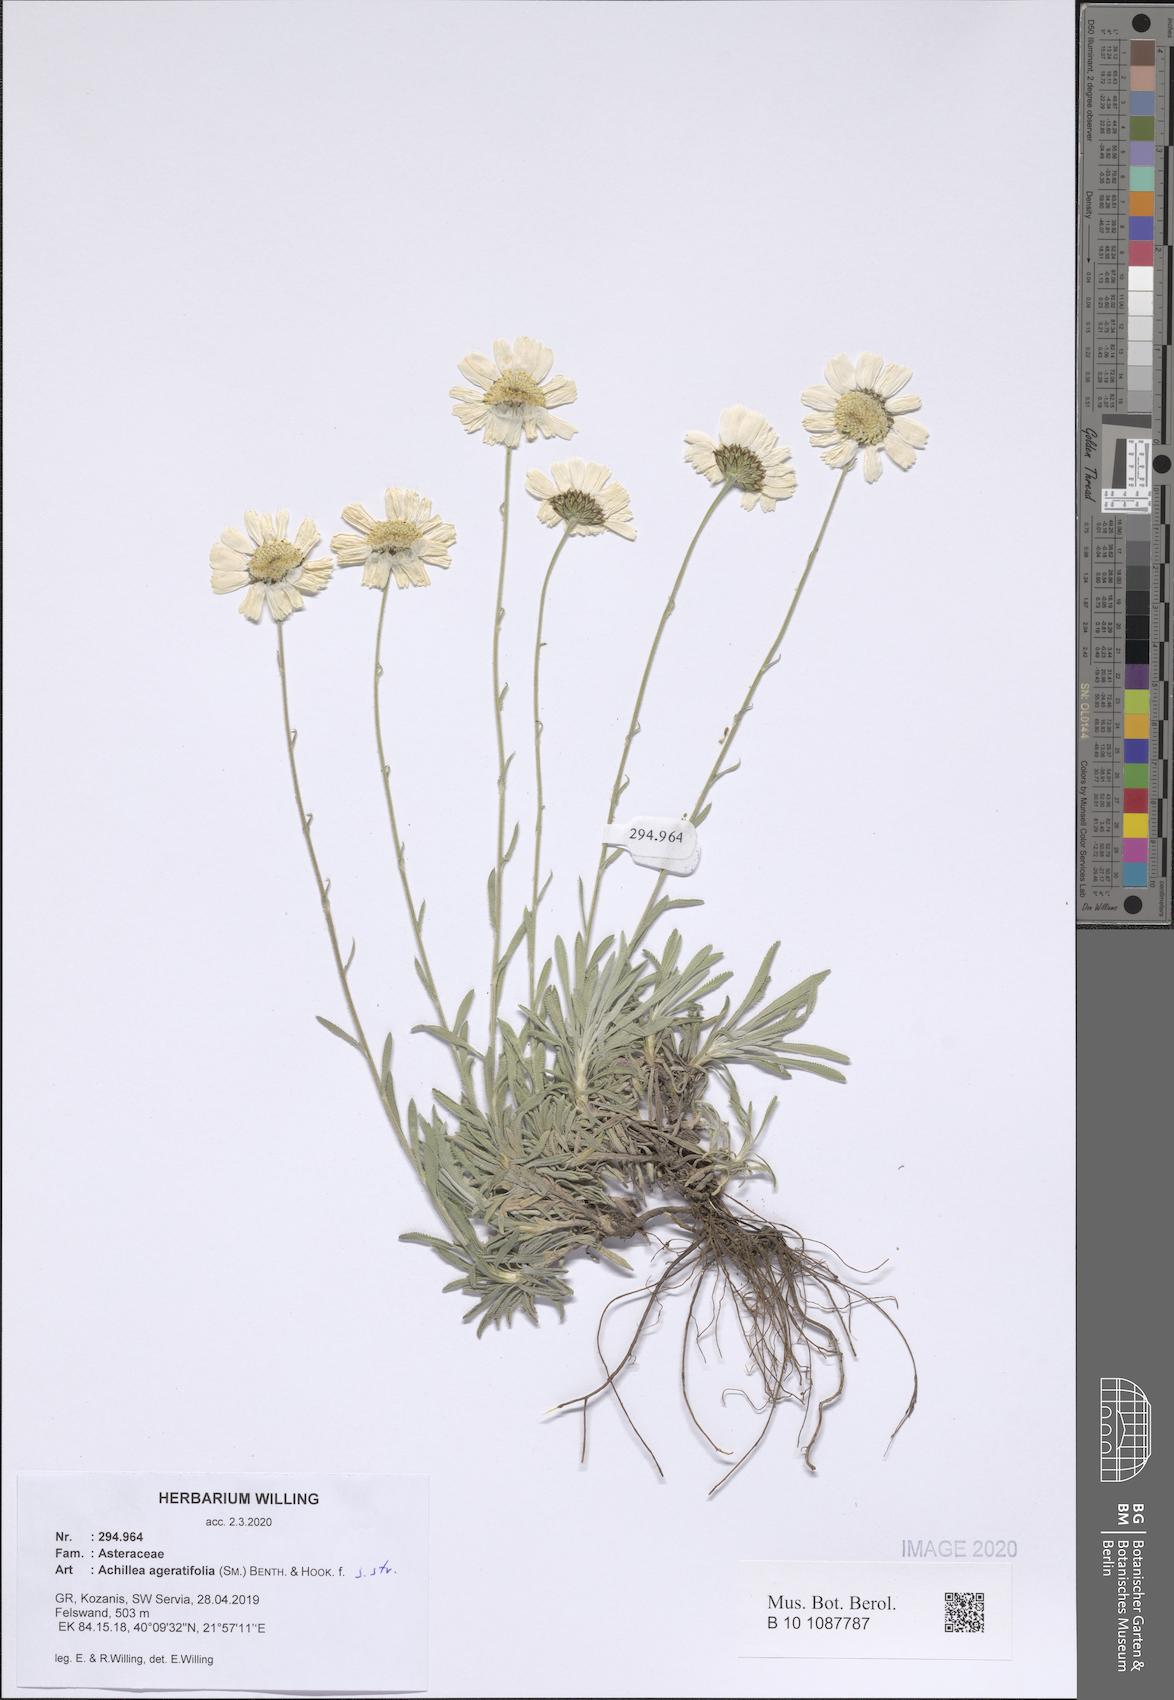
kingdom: Plantae
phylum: Tracheophyta
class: Magnoliopsida
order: Asterales
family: Asteraceae
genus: Achillea
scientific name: Achillea ageratifolia
